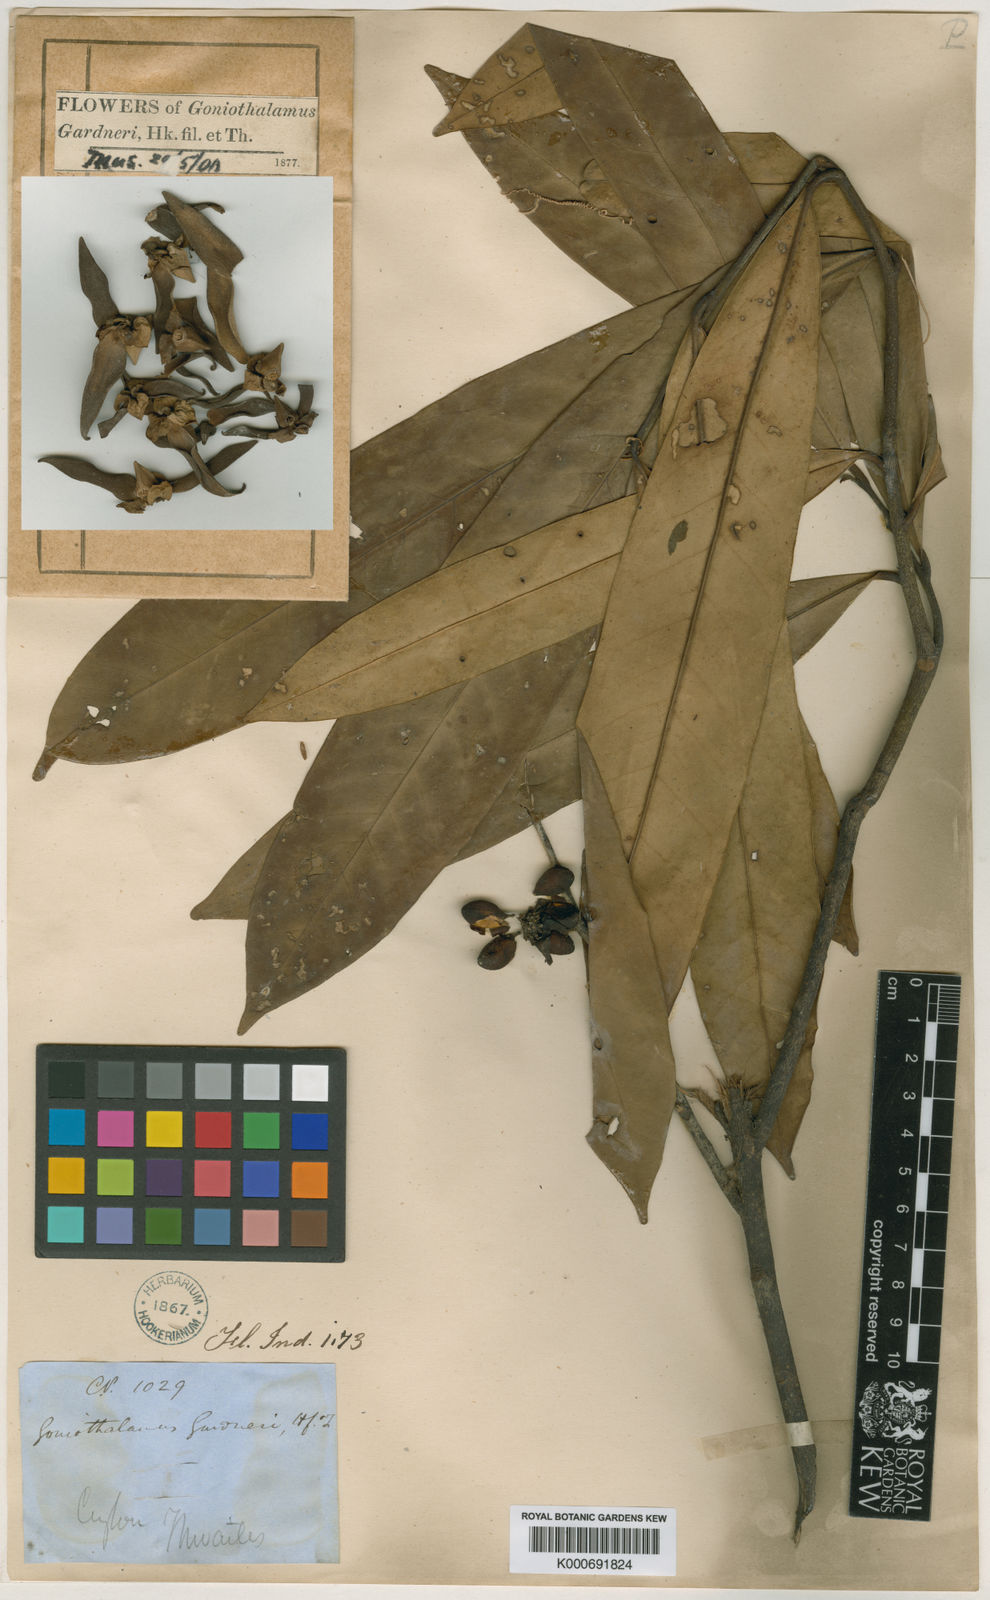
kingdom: Plantae
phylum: Tracheophyta
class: Magnoliopsida
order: Magnoliales
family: Annonaceae
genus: Goniothalamus
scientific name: Goniothalamus gardneri
